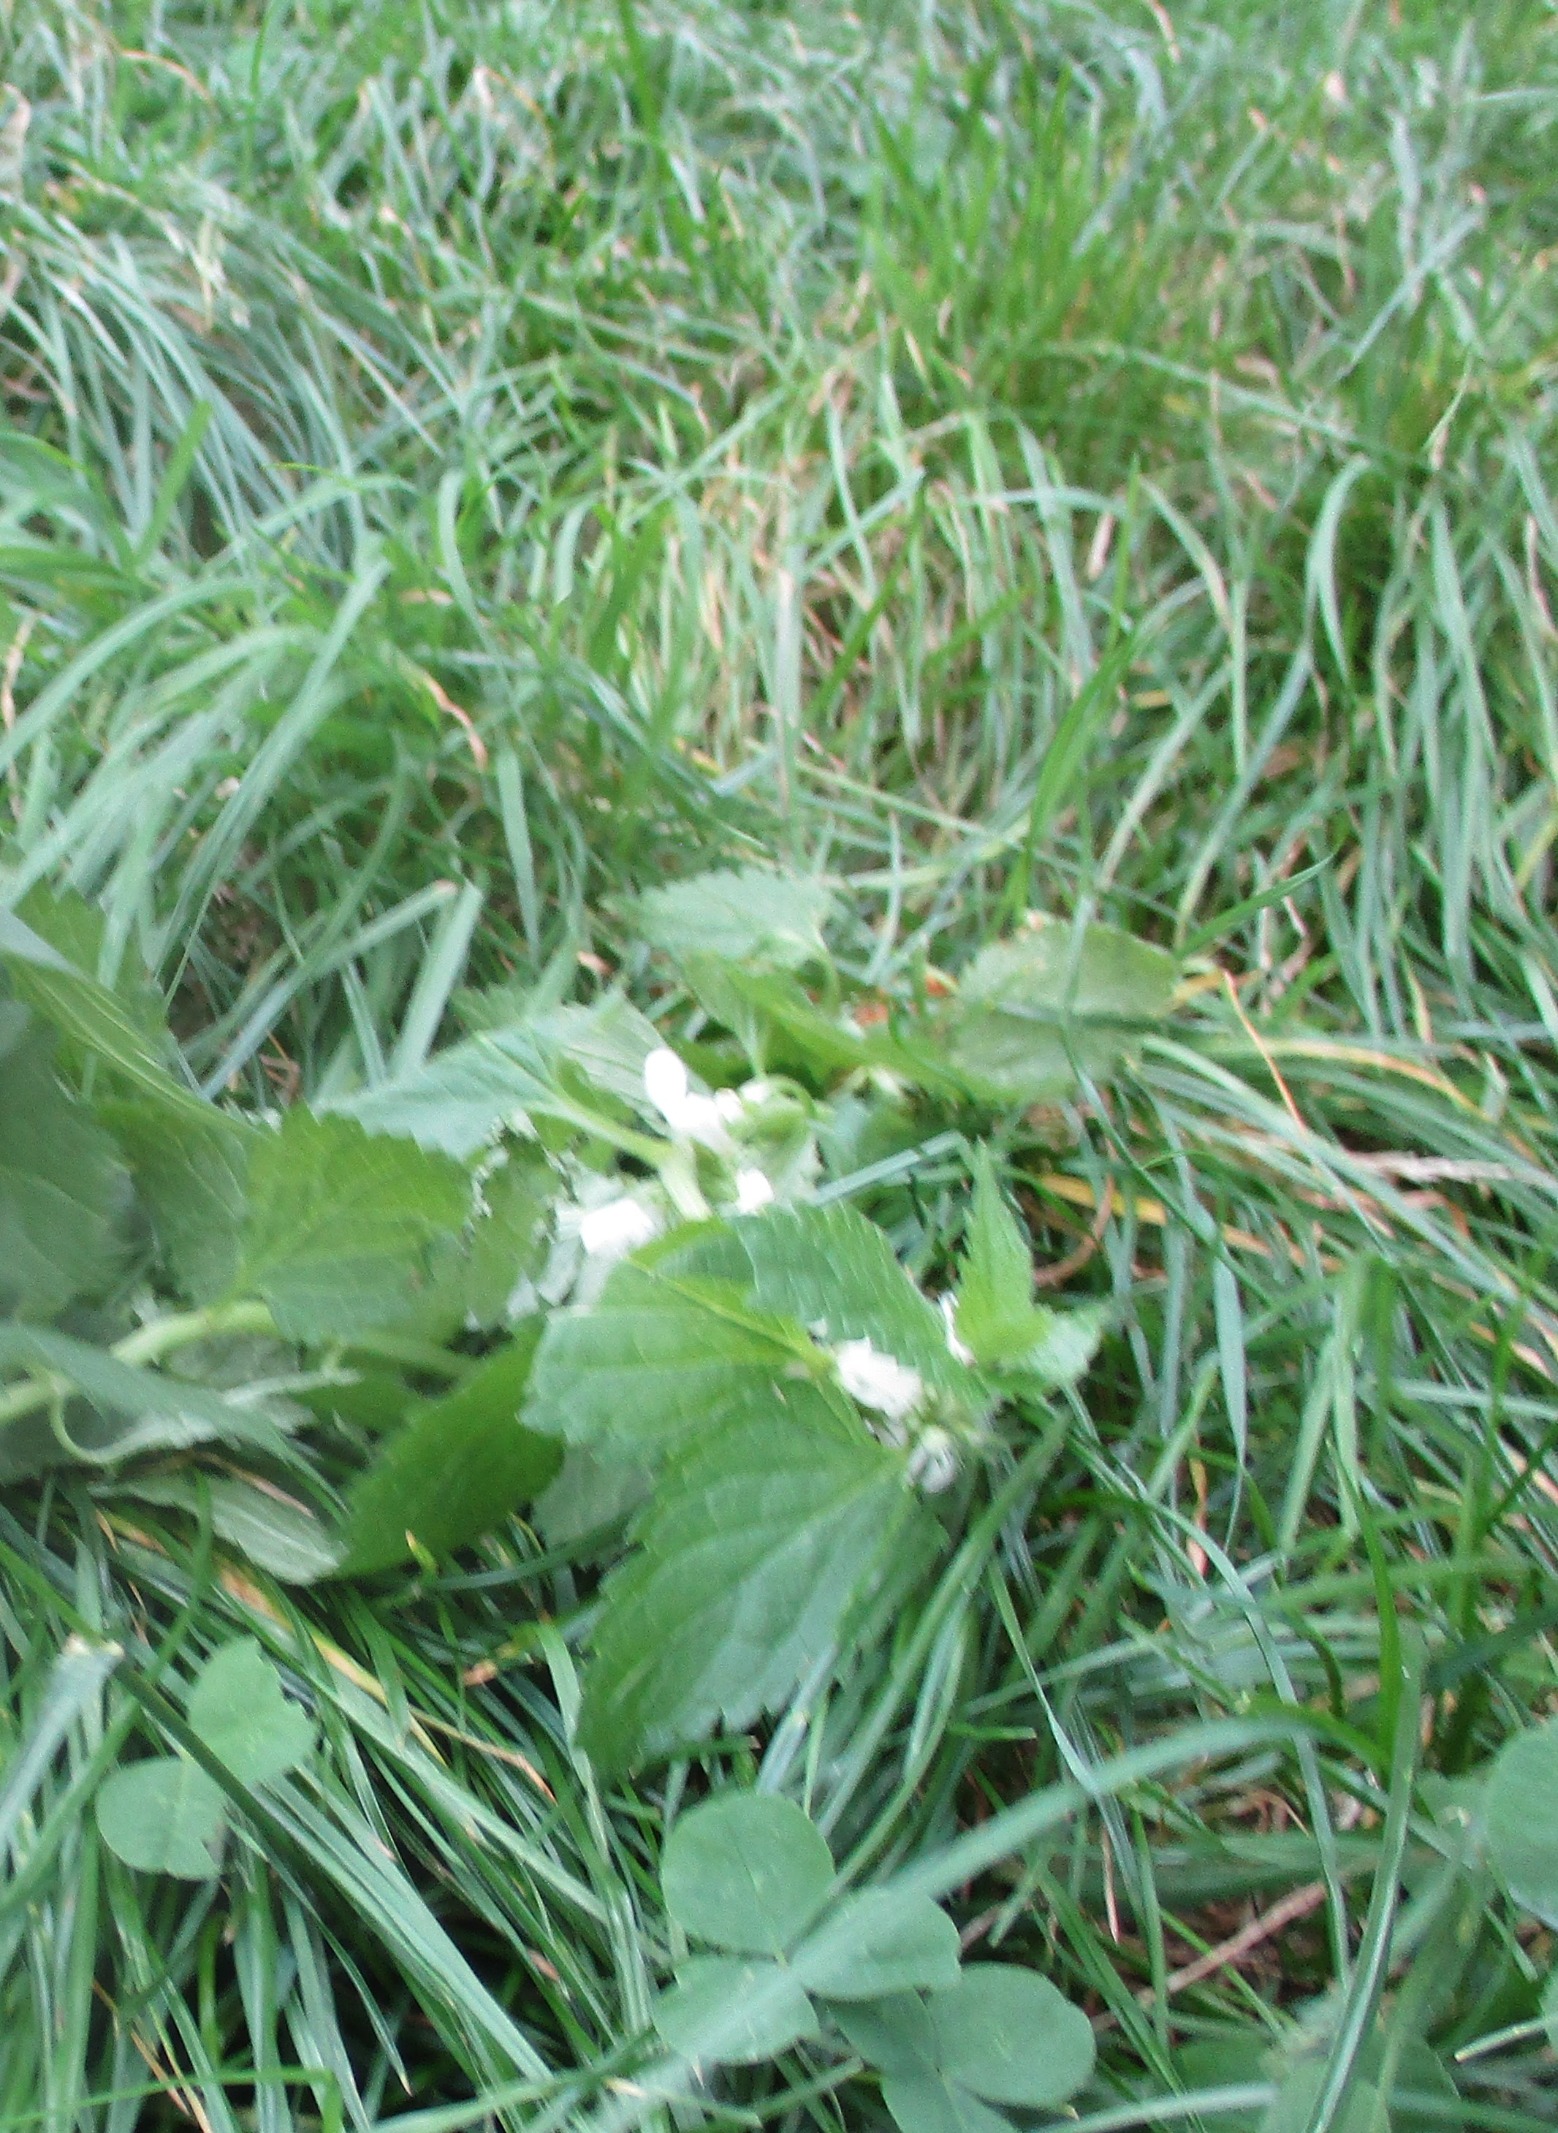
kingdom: Plantae
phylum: Tracheophyta
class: Magnoliopsida
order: Lamiales
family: Lamiaceae
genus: Lamium
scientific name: Lamium album
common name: Døvnælde
